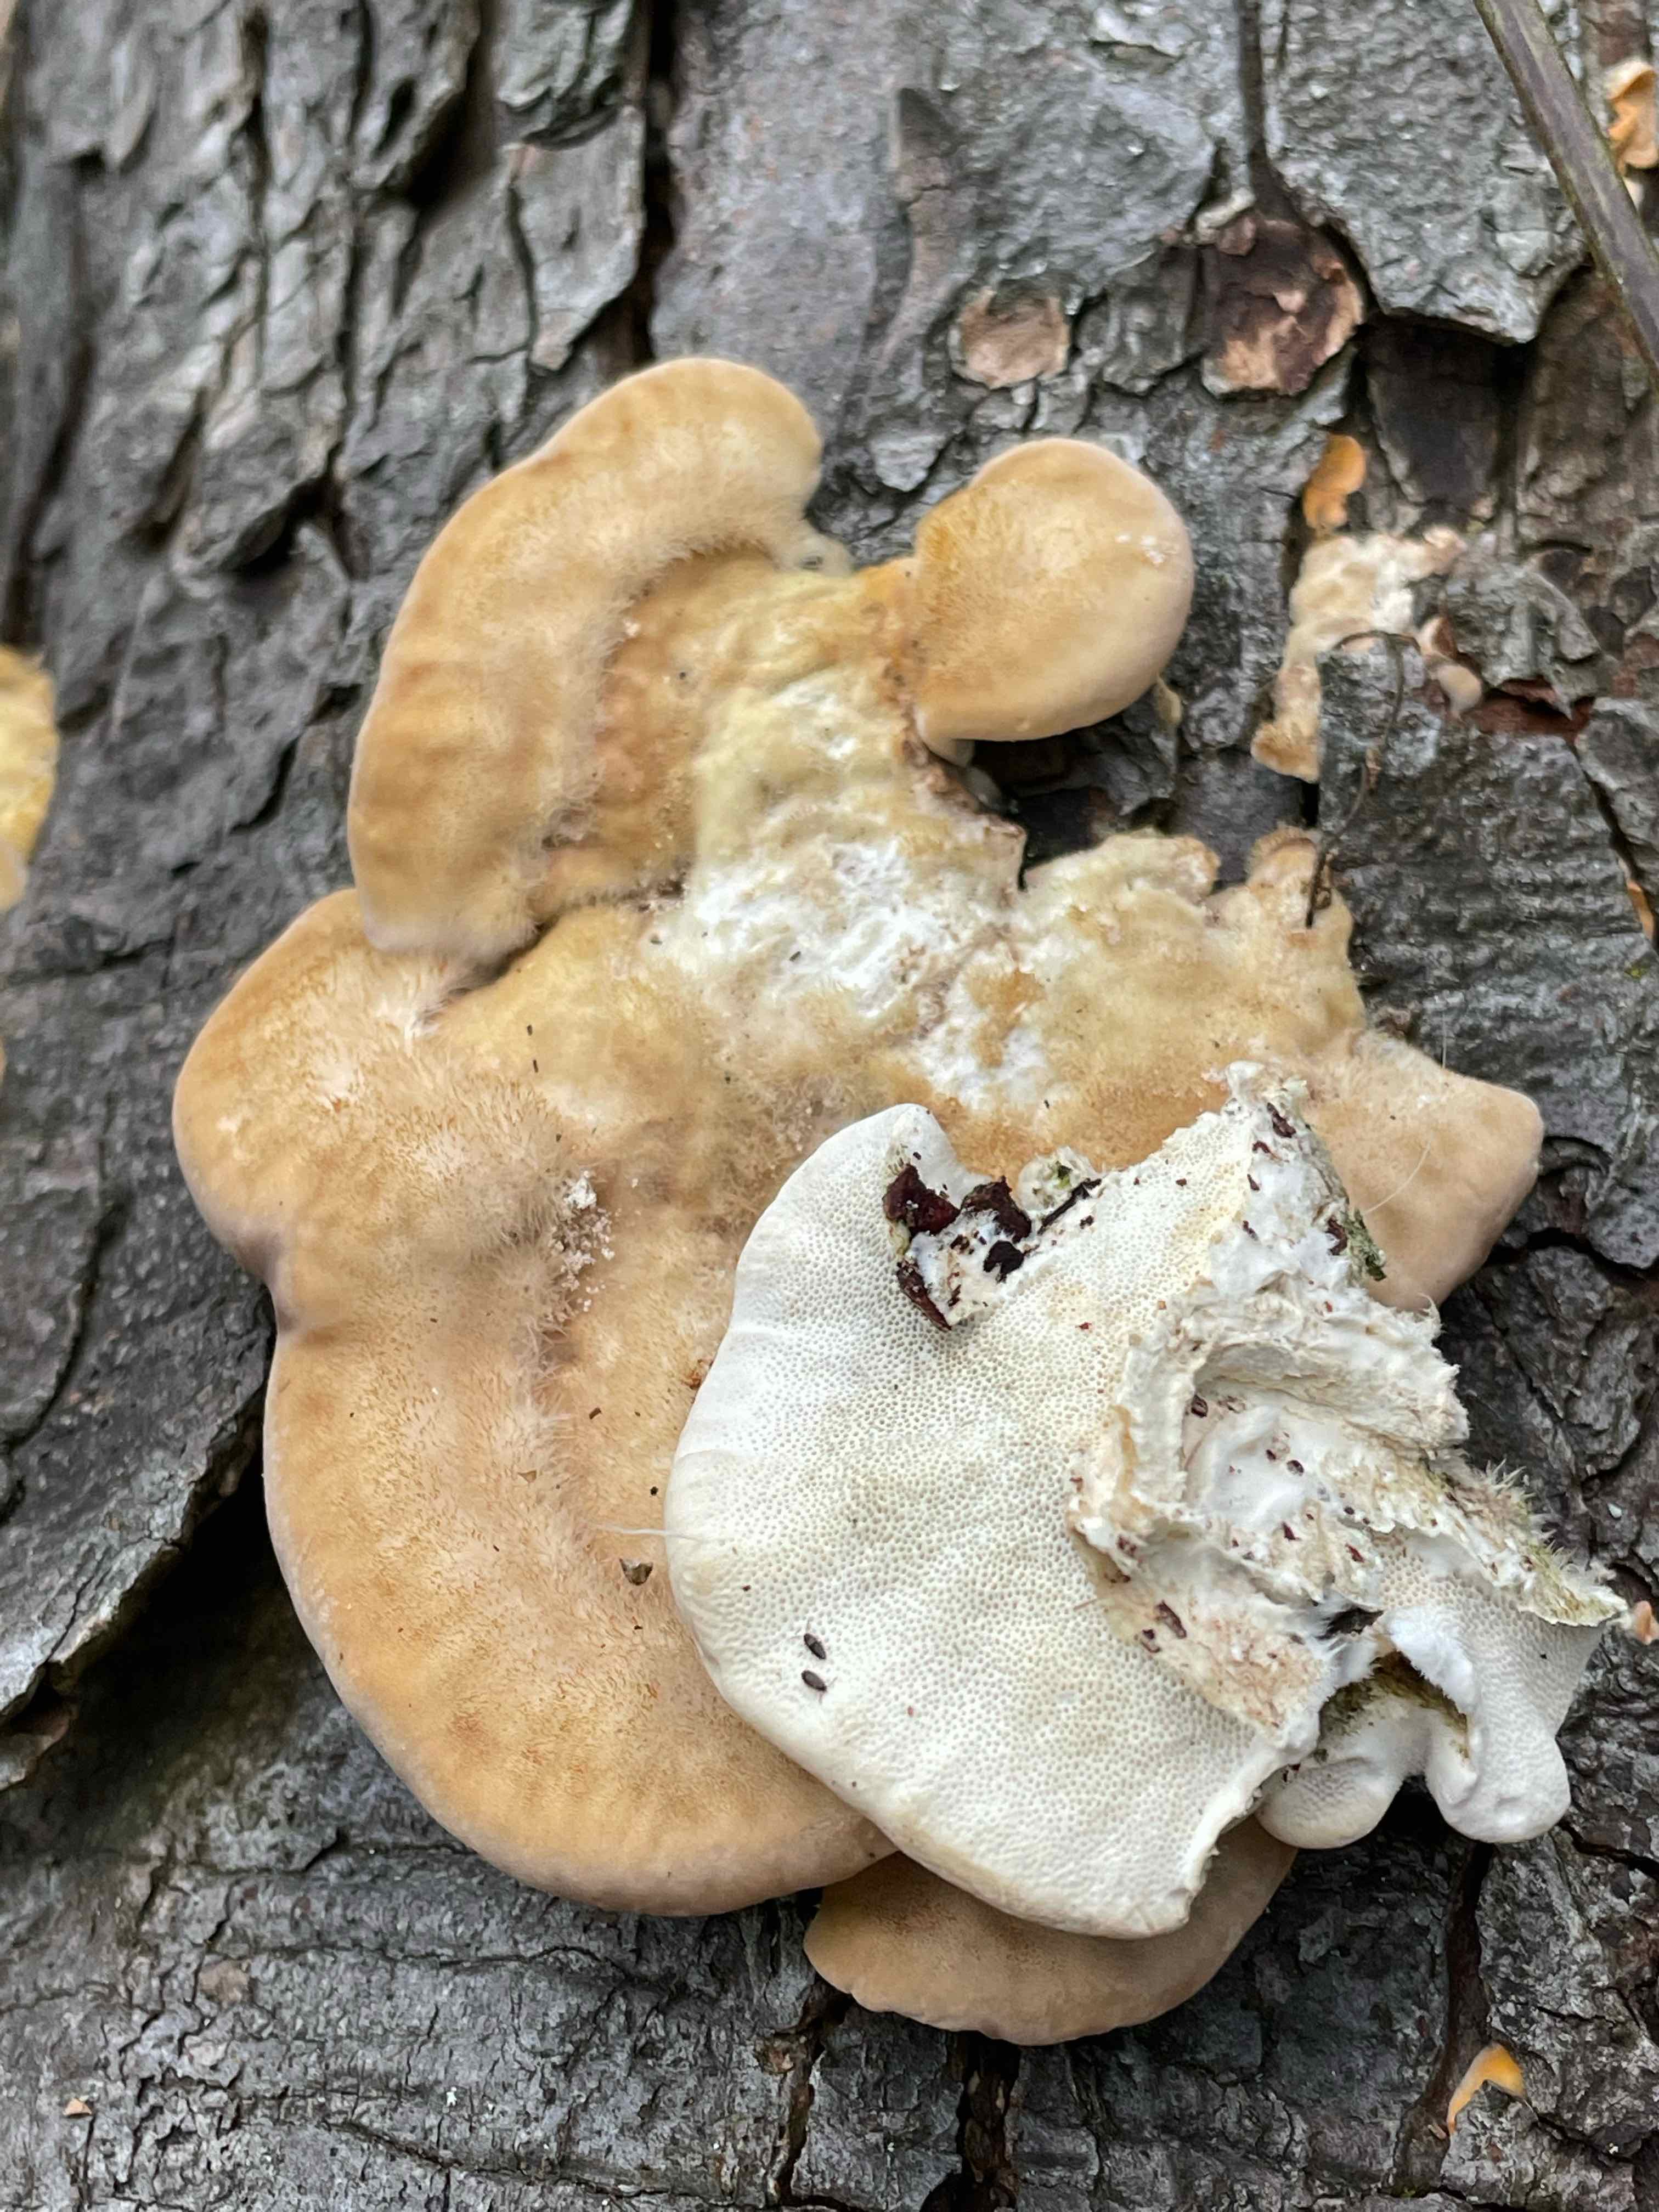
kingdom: Fungi
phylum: Basidiomycota
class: Agaricomycetes
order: Polyporales
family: Polyporaceae
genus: Trametes
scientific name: Trametes hirsuta
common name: håret læderporesvamp
